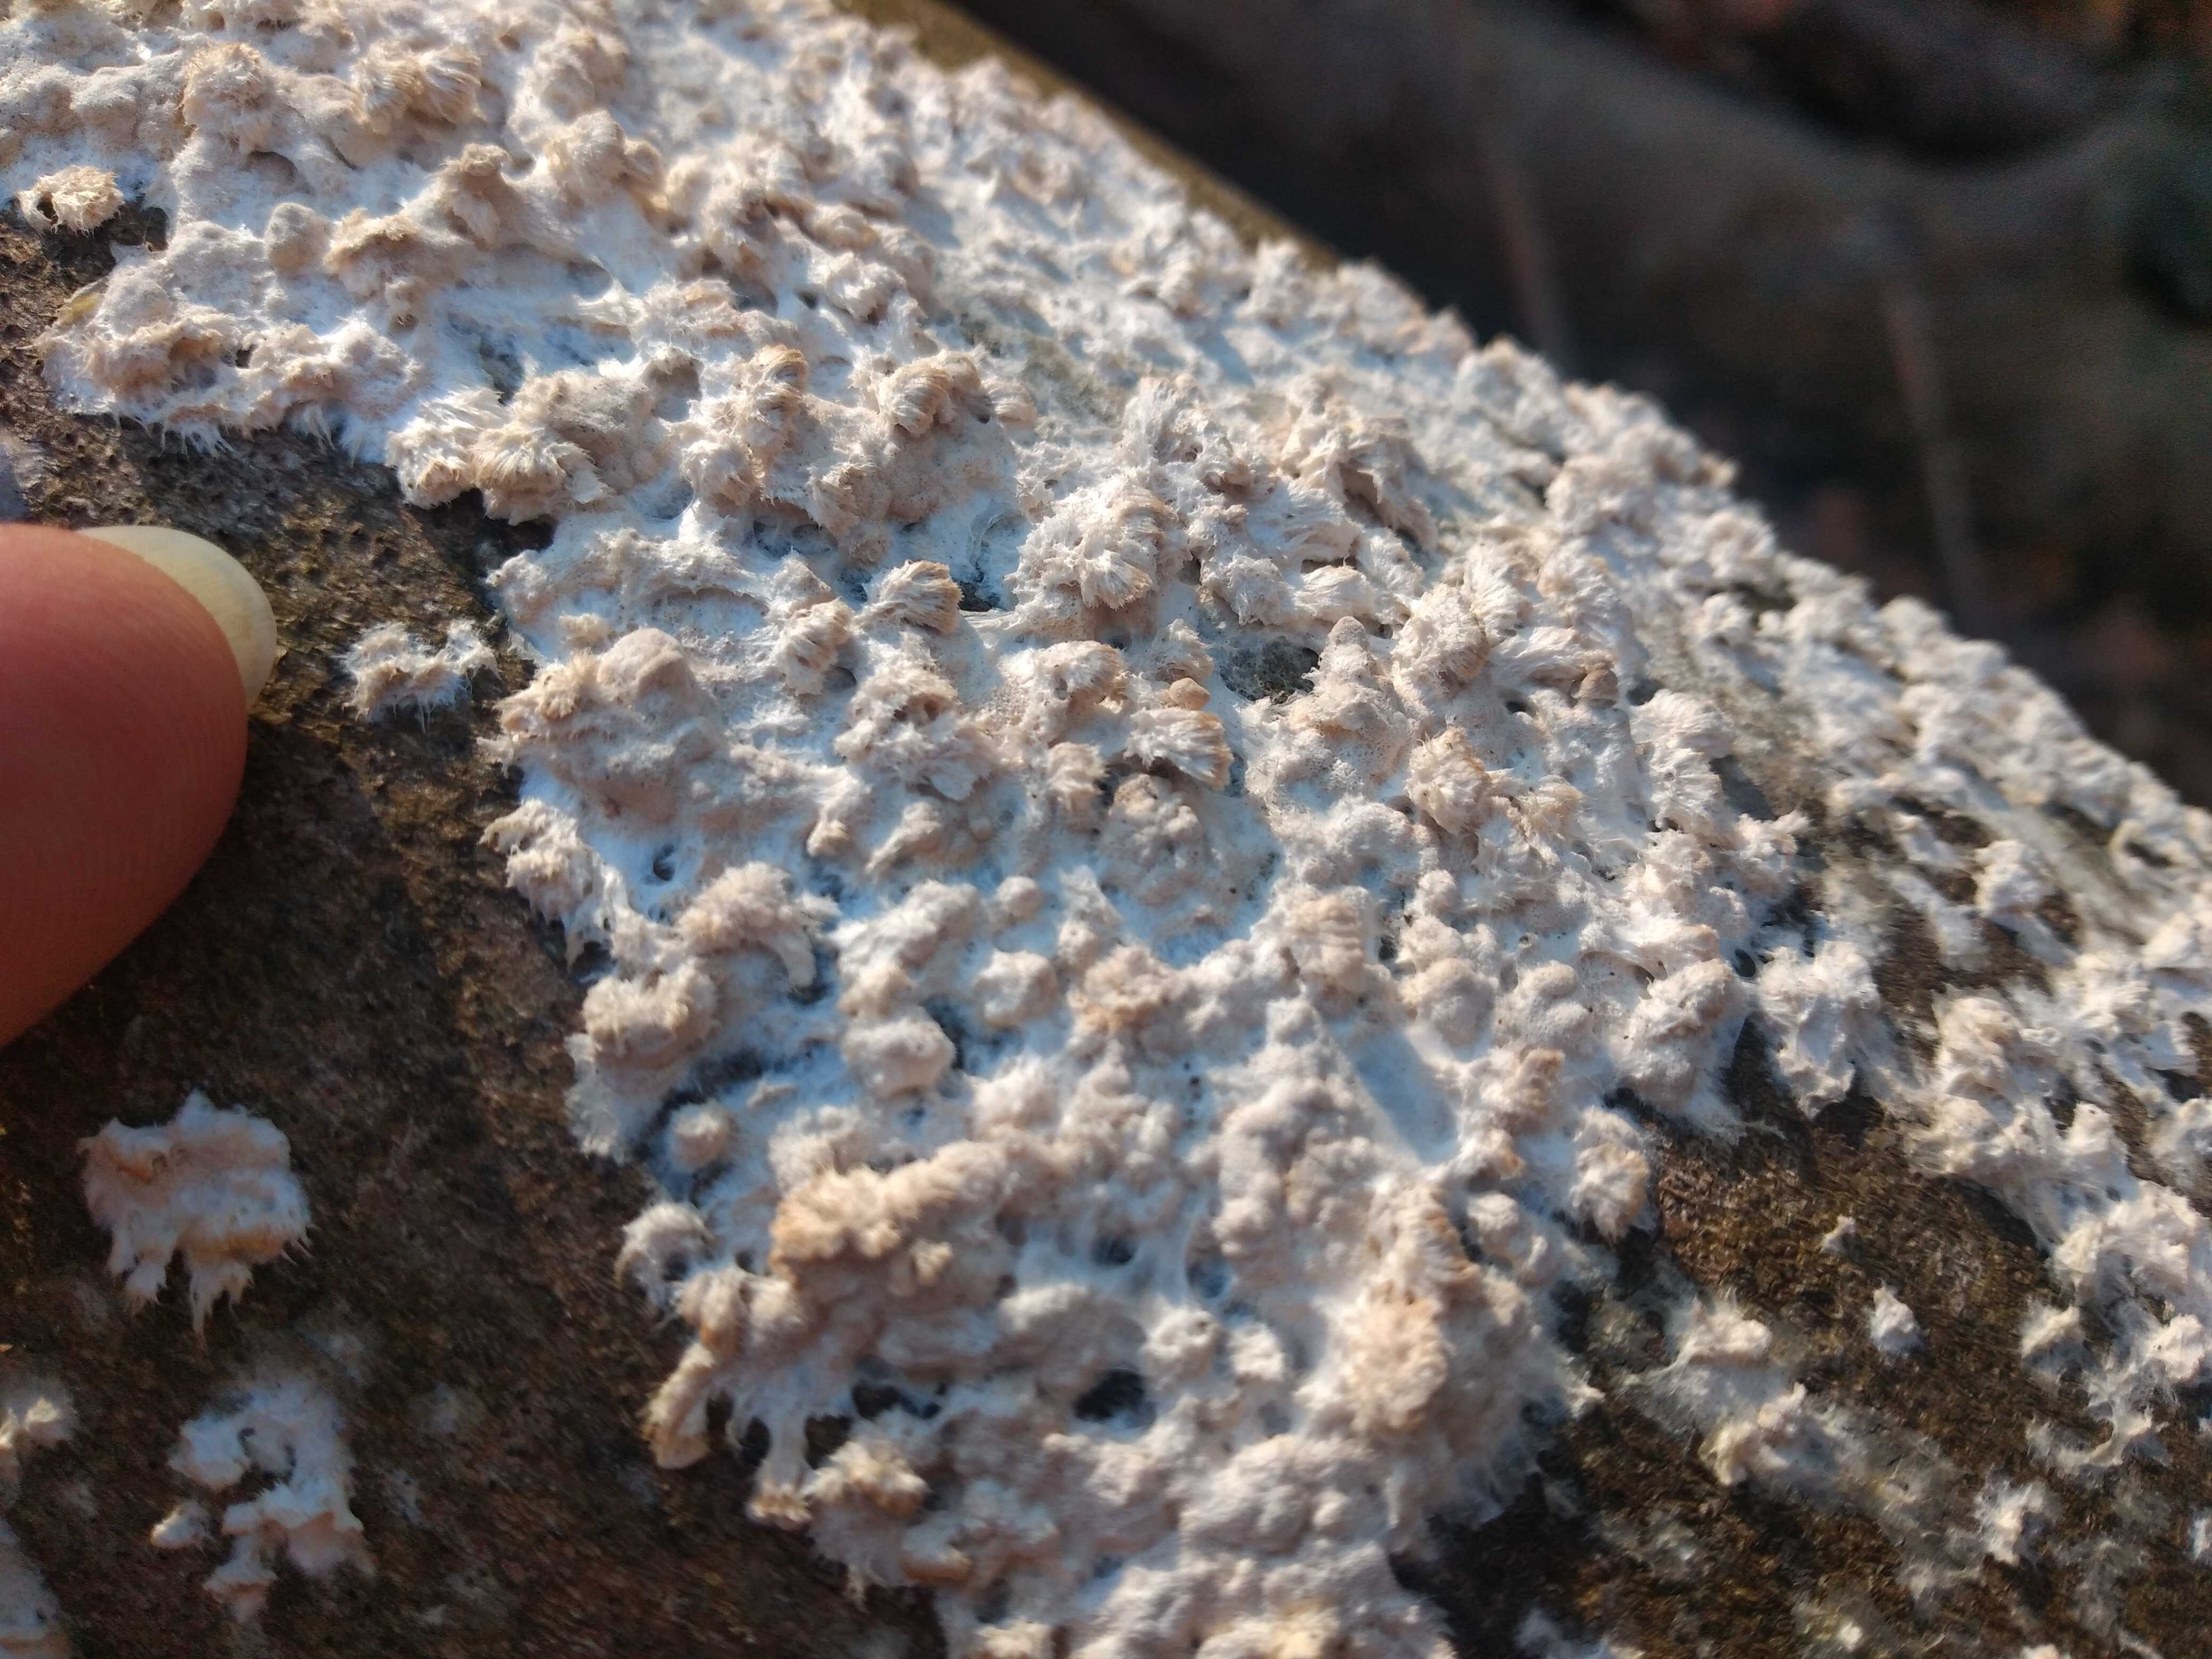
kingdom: Fungi
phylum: Basidiomycota
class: Agaricomycetes
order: Corticiales
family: Corticiaceae
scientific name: Corticiaceae
